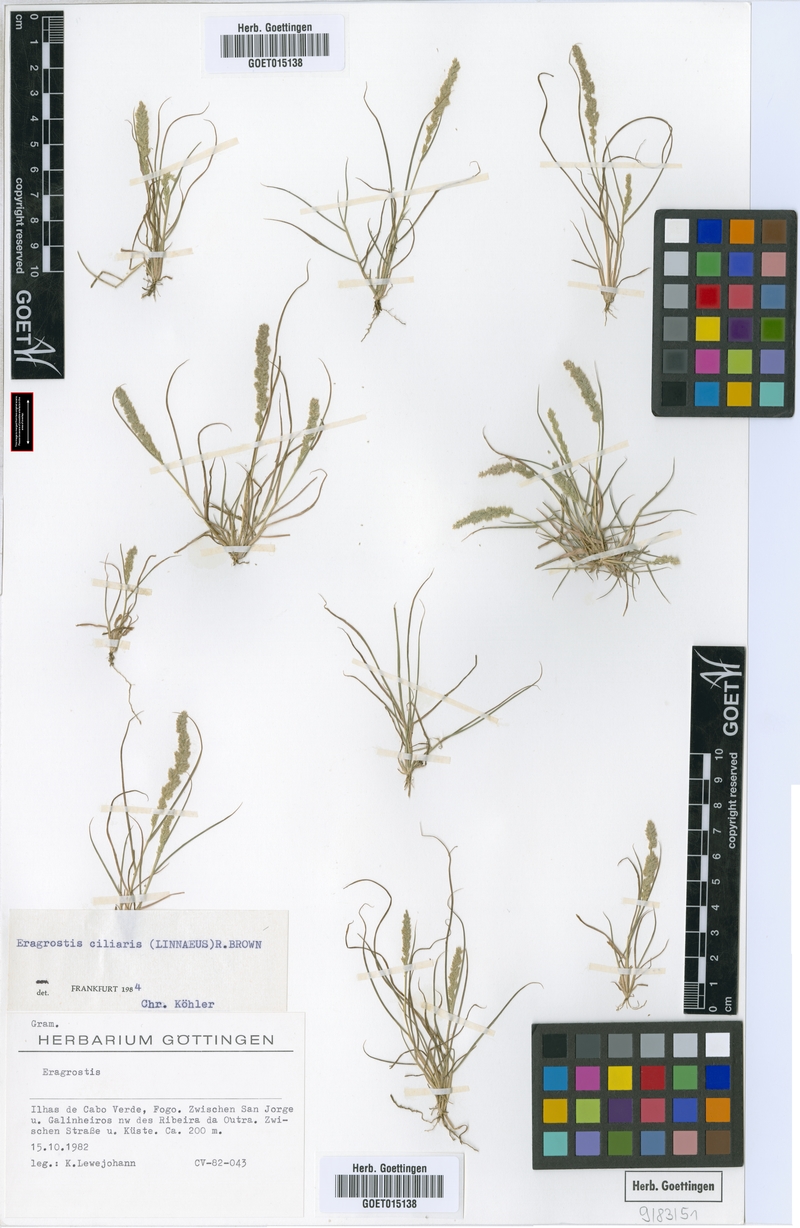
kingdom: Plantae
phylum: Tracheophyta
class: Liliopsida
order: Poales
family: Poaceae
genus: Eragrostis
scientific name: Eragrostis ciliaris
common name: Gophertail lovegrass
